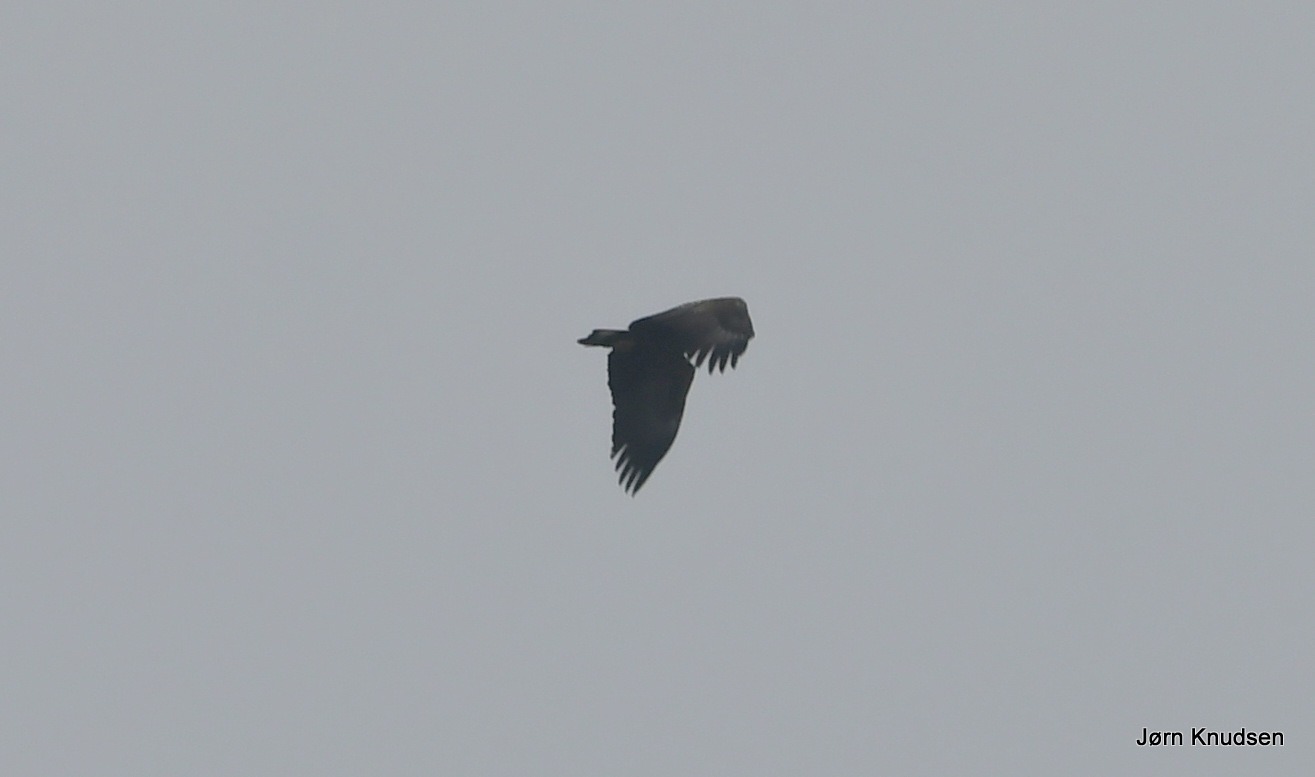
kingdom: Animalia
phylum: Chordata
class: Aves
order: Accipitriformes
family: Accipitridae
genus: Haliaeetus
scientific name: Haliaeetus albicilla
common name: Havørn
